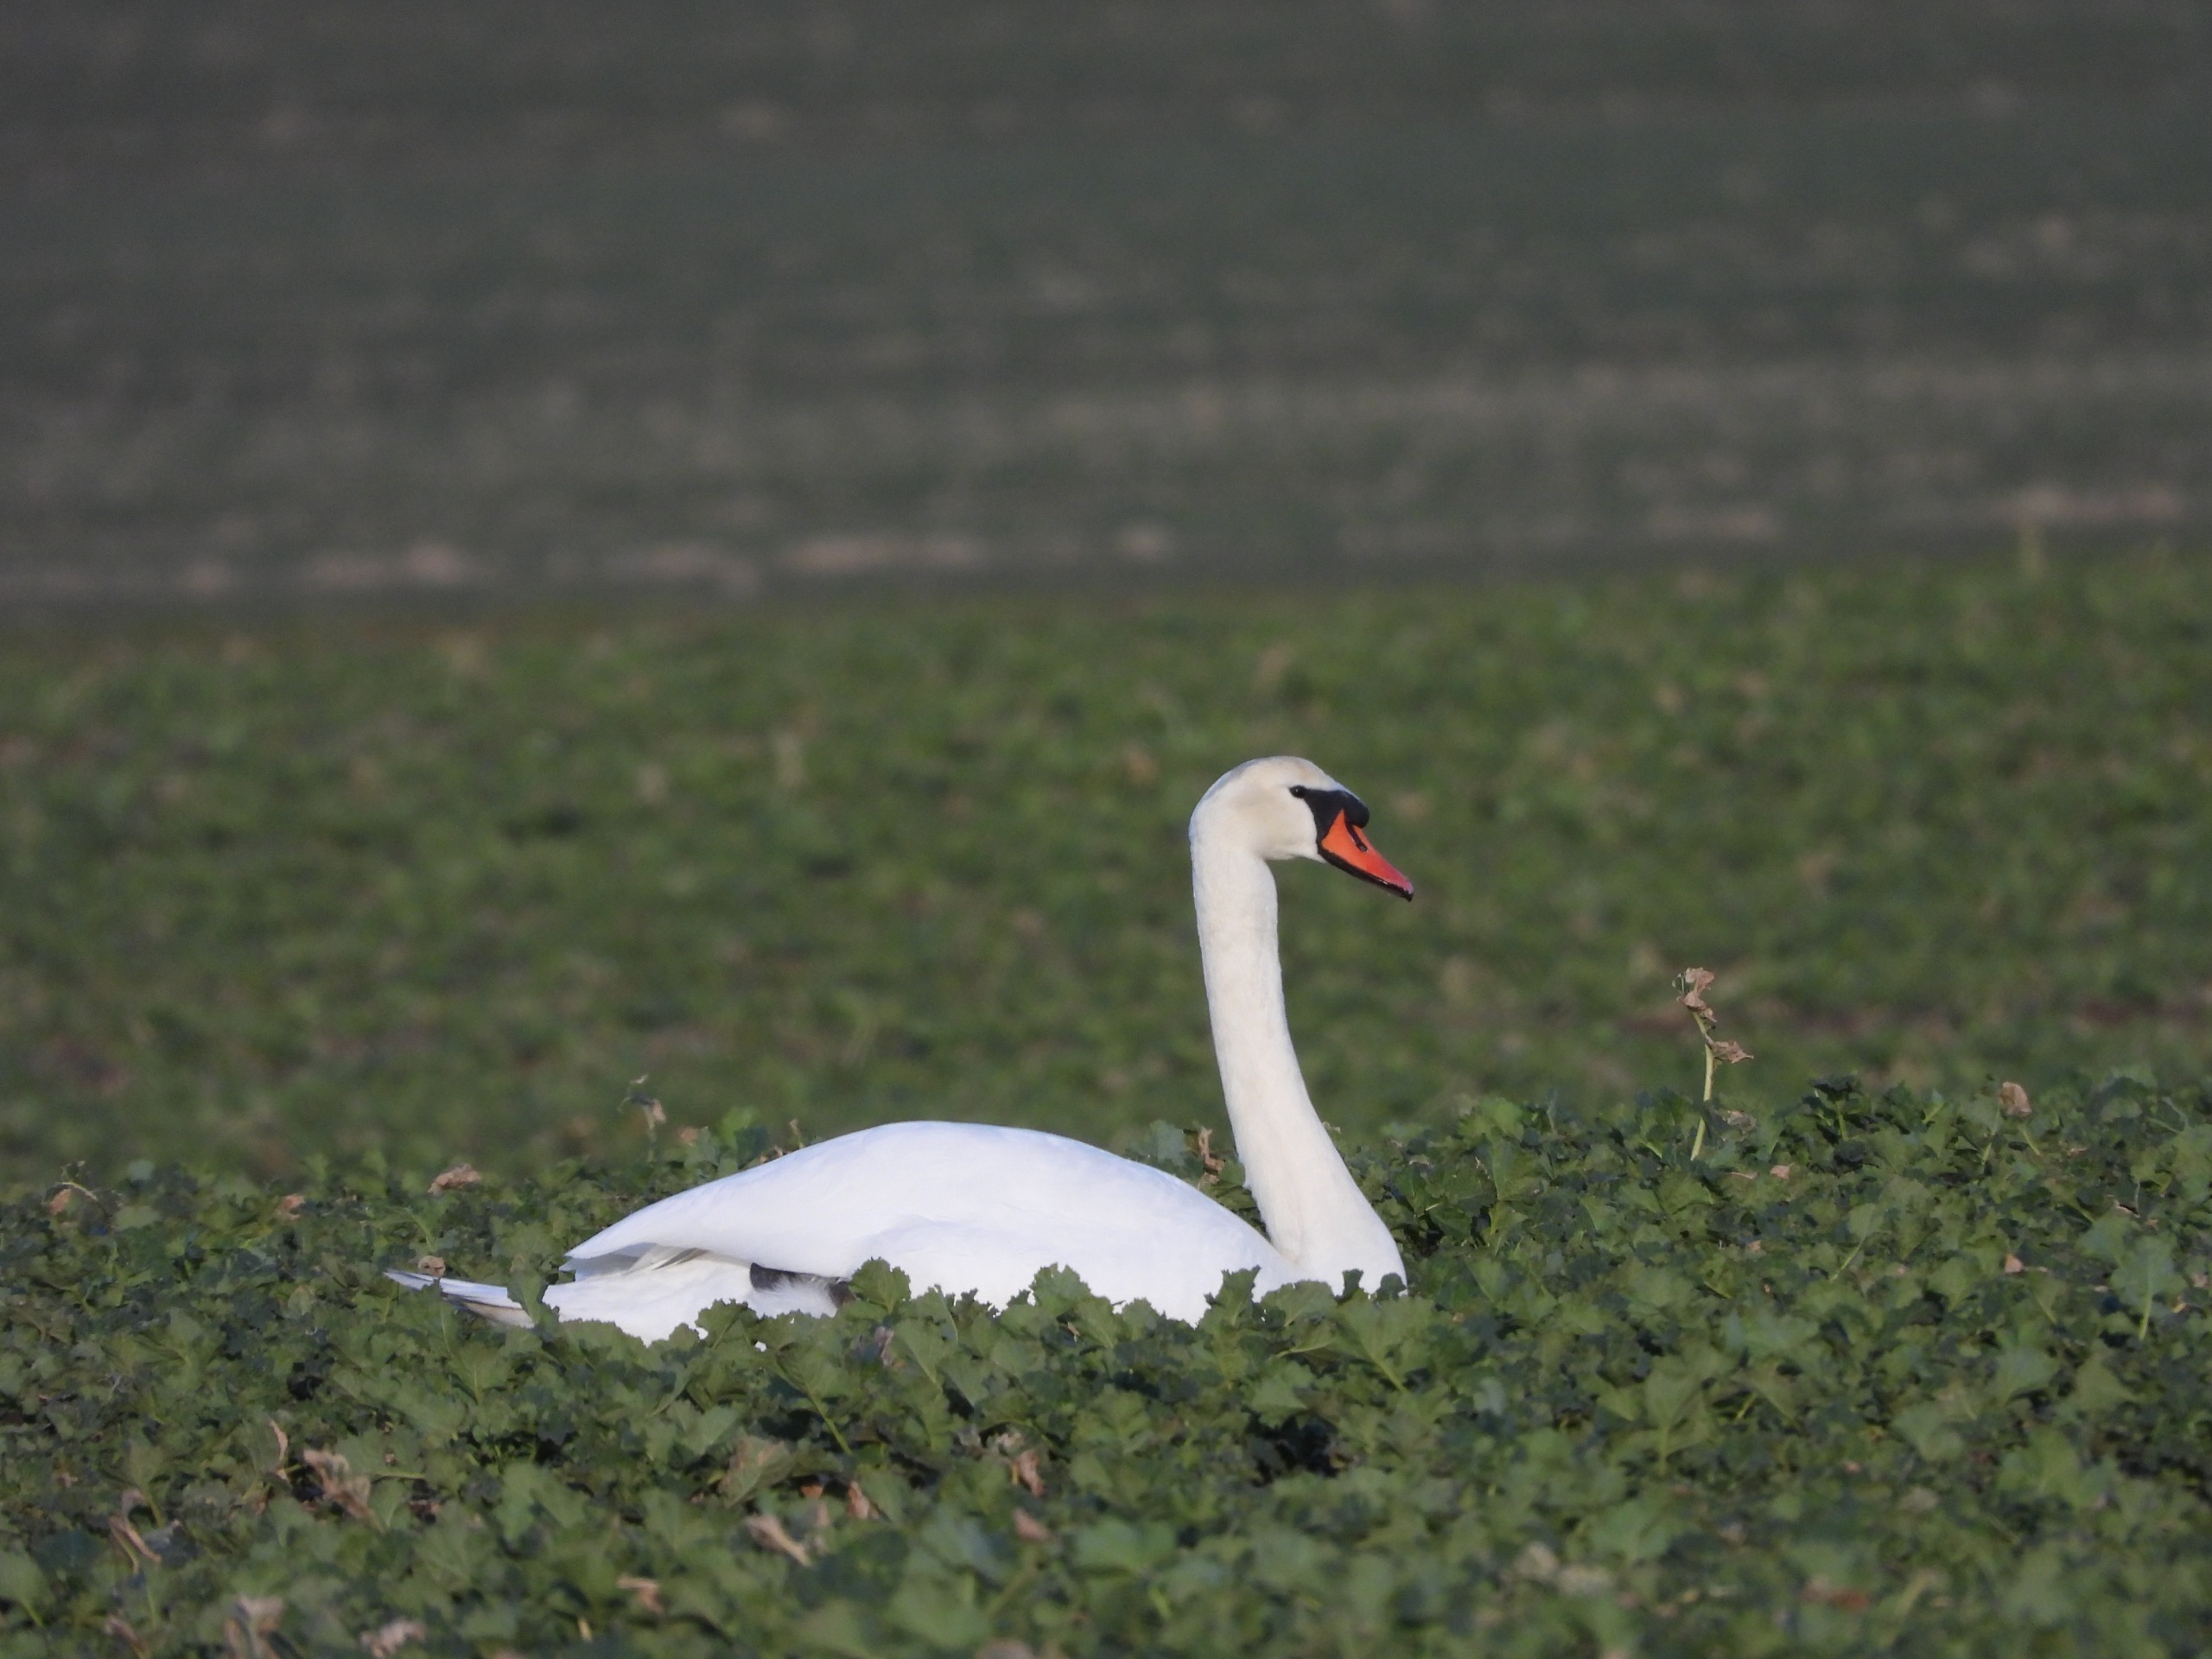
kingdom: Animalia
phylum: Chordata
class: Aves
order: Anseriformes
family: Anatidae
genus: Cygnus
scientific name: Cygnus olor
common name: Knopsvane
